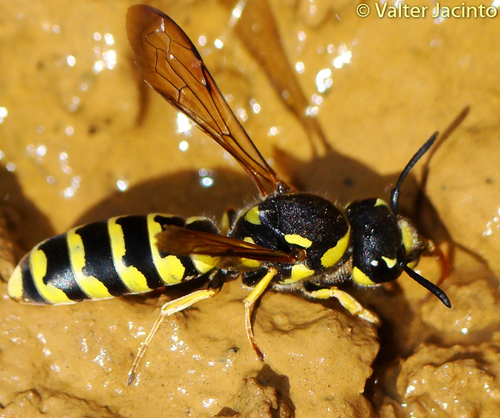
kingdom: Animalia
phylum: Arthropoda
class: Insecta
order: Hymenoptera
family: Masaridae
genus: Ceramius
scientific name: Ceramius
